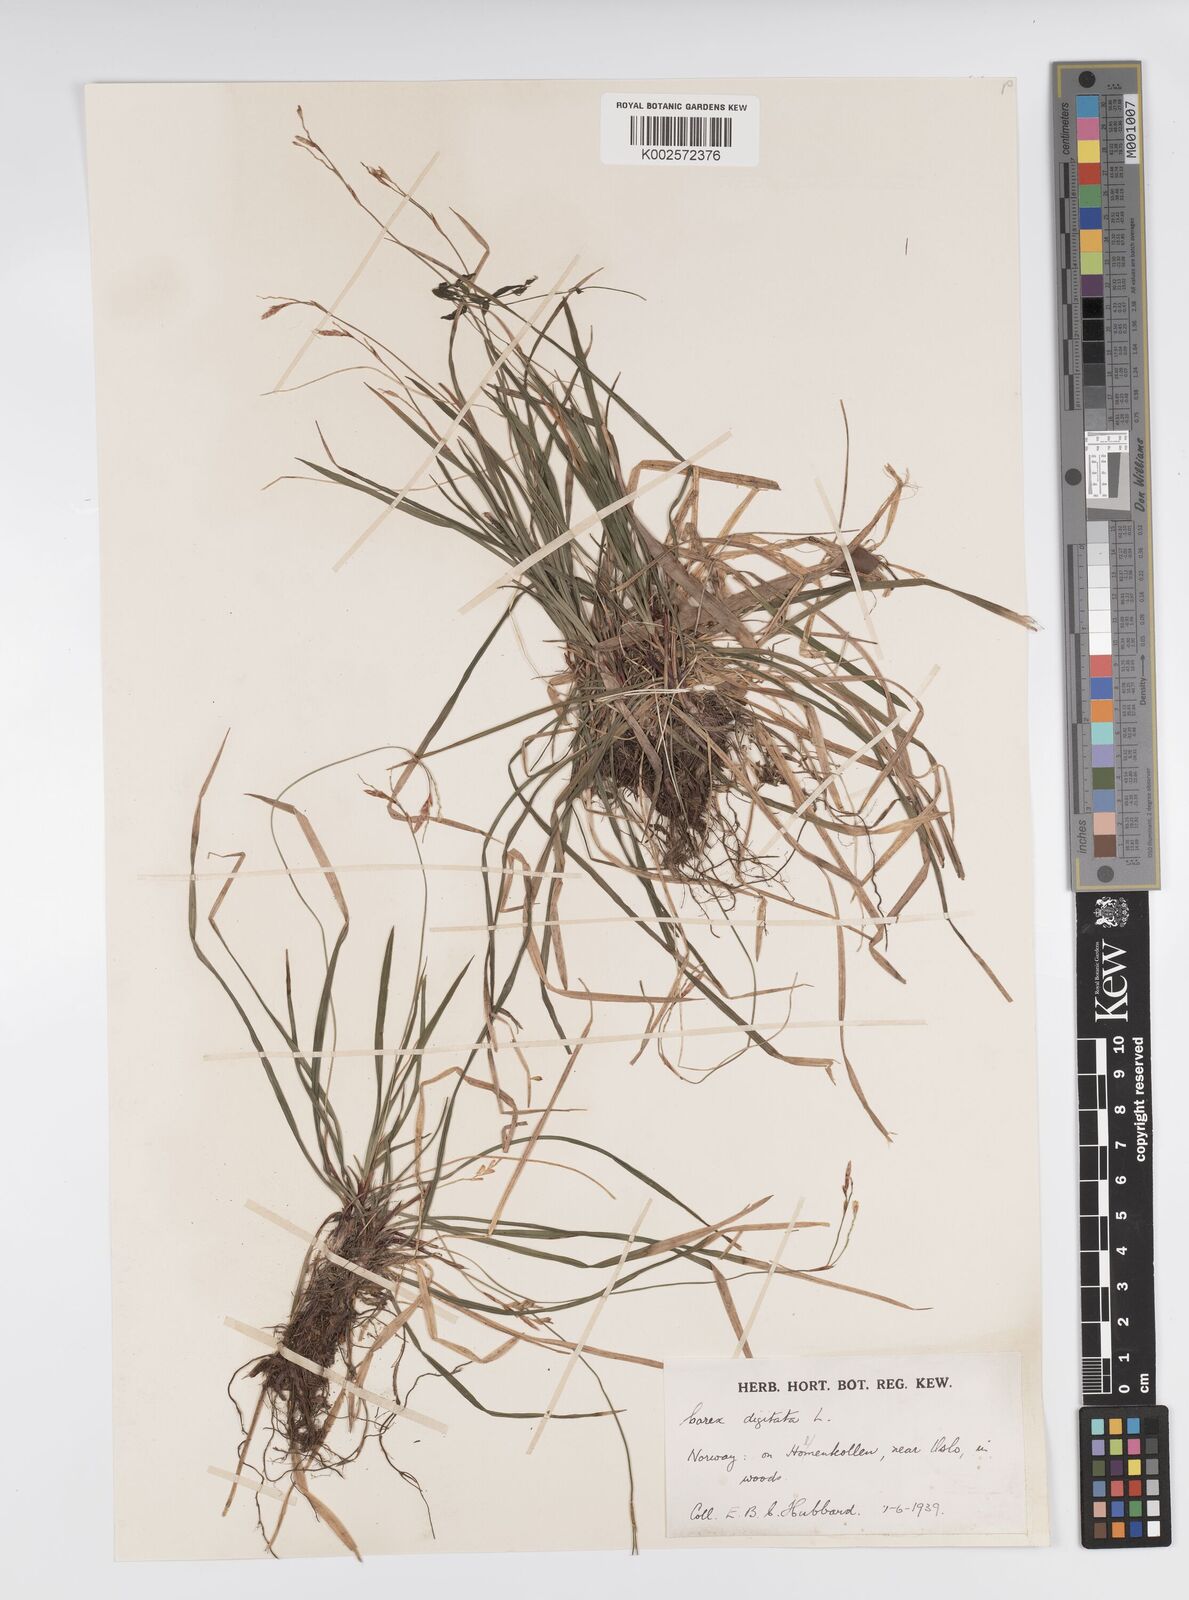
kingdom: Plantae
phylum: Tracheophyta
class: Liliopsida
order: Poales
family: Cyperaceae
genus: Carex
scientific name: Carex digitata
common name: Fingered sedge
